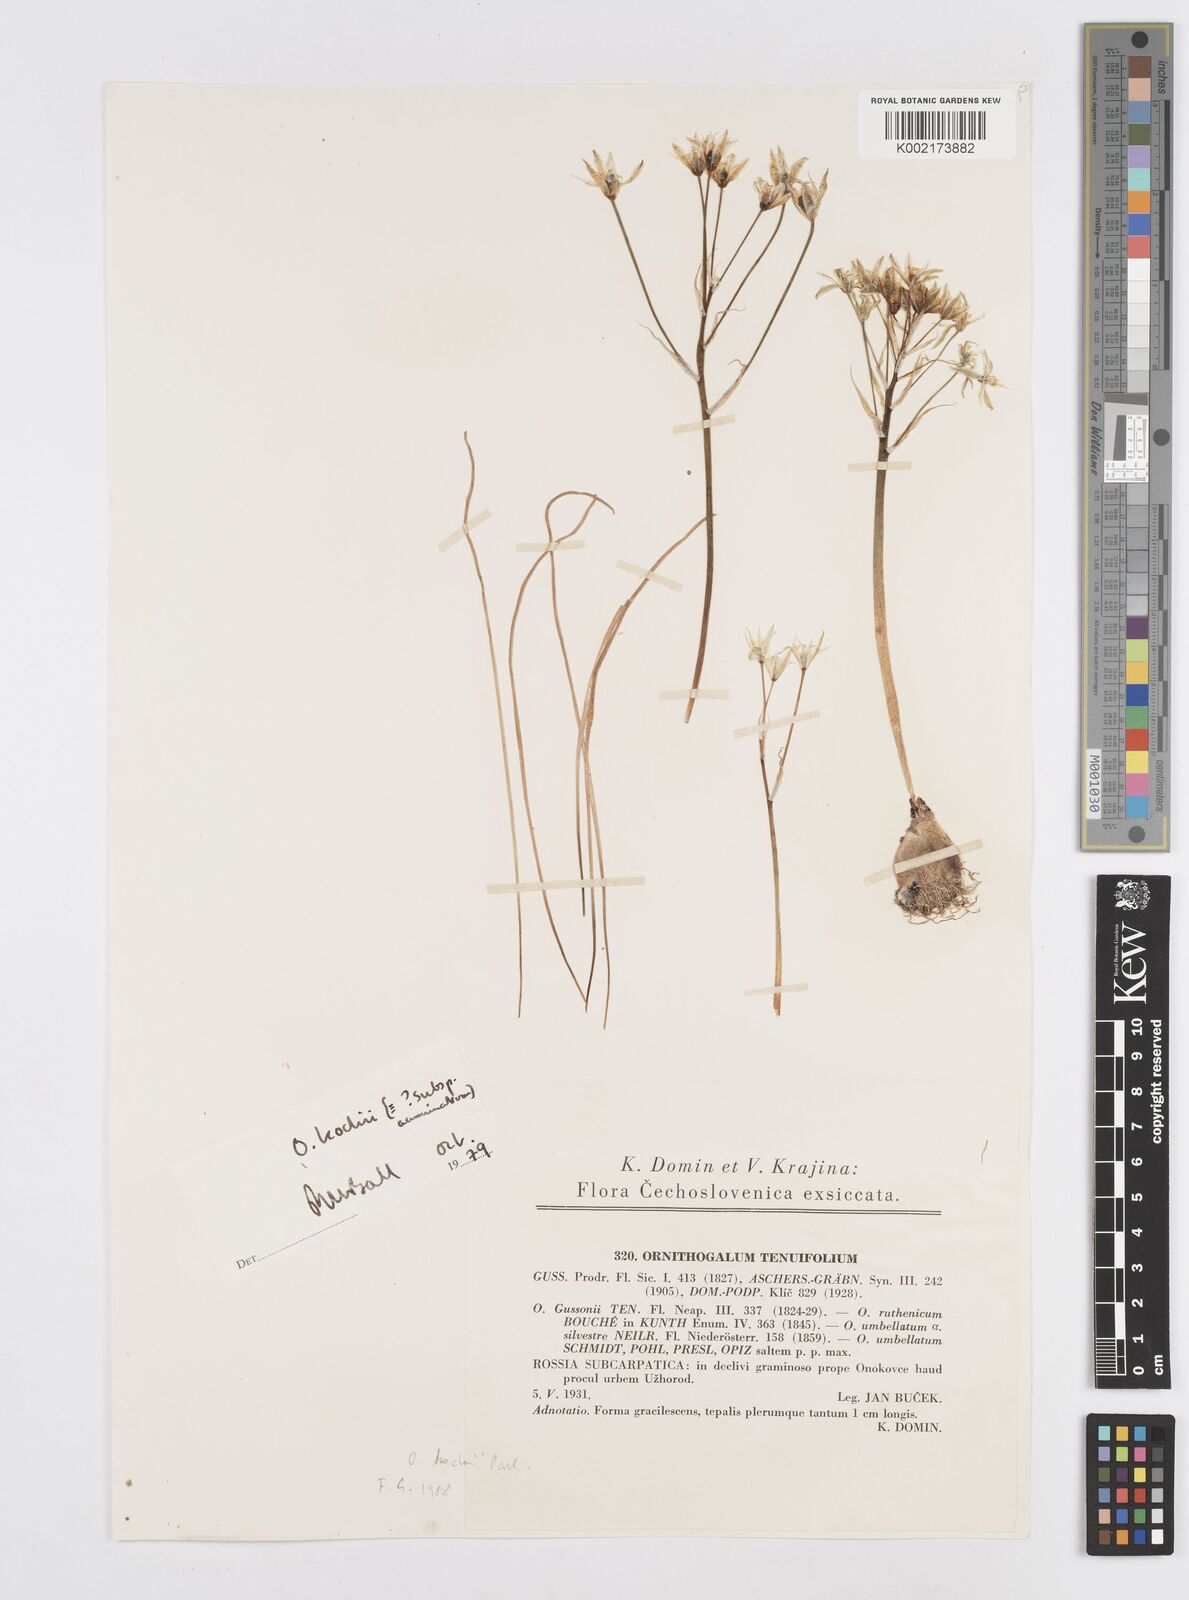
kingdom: Plantae
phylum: Tracheophyta
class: Liliopsida
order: Asparagales
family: Asparagaceae
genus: Ornithogalum
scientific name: Ornithogalum orthophyllum
